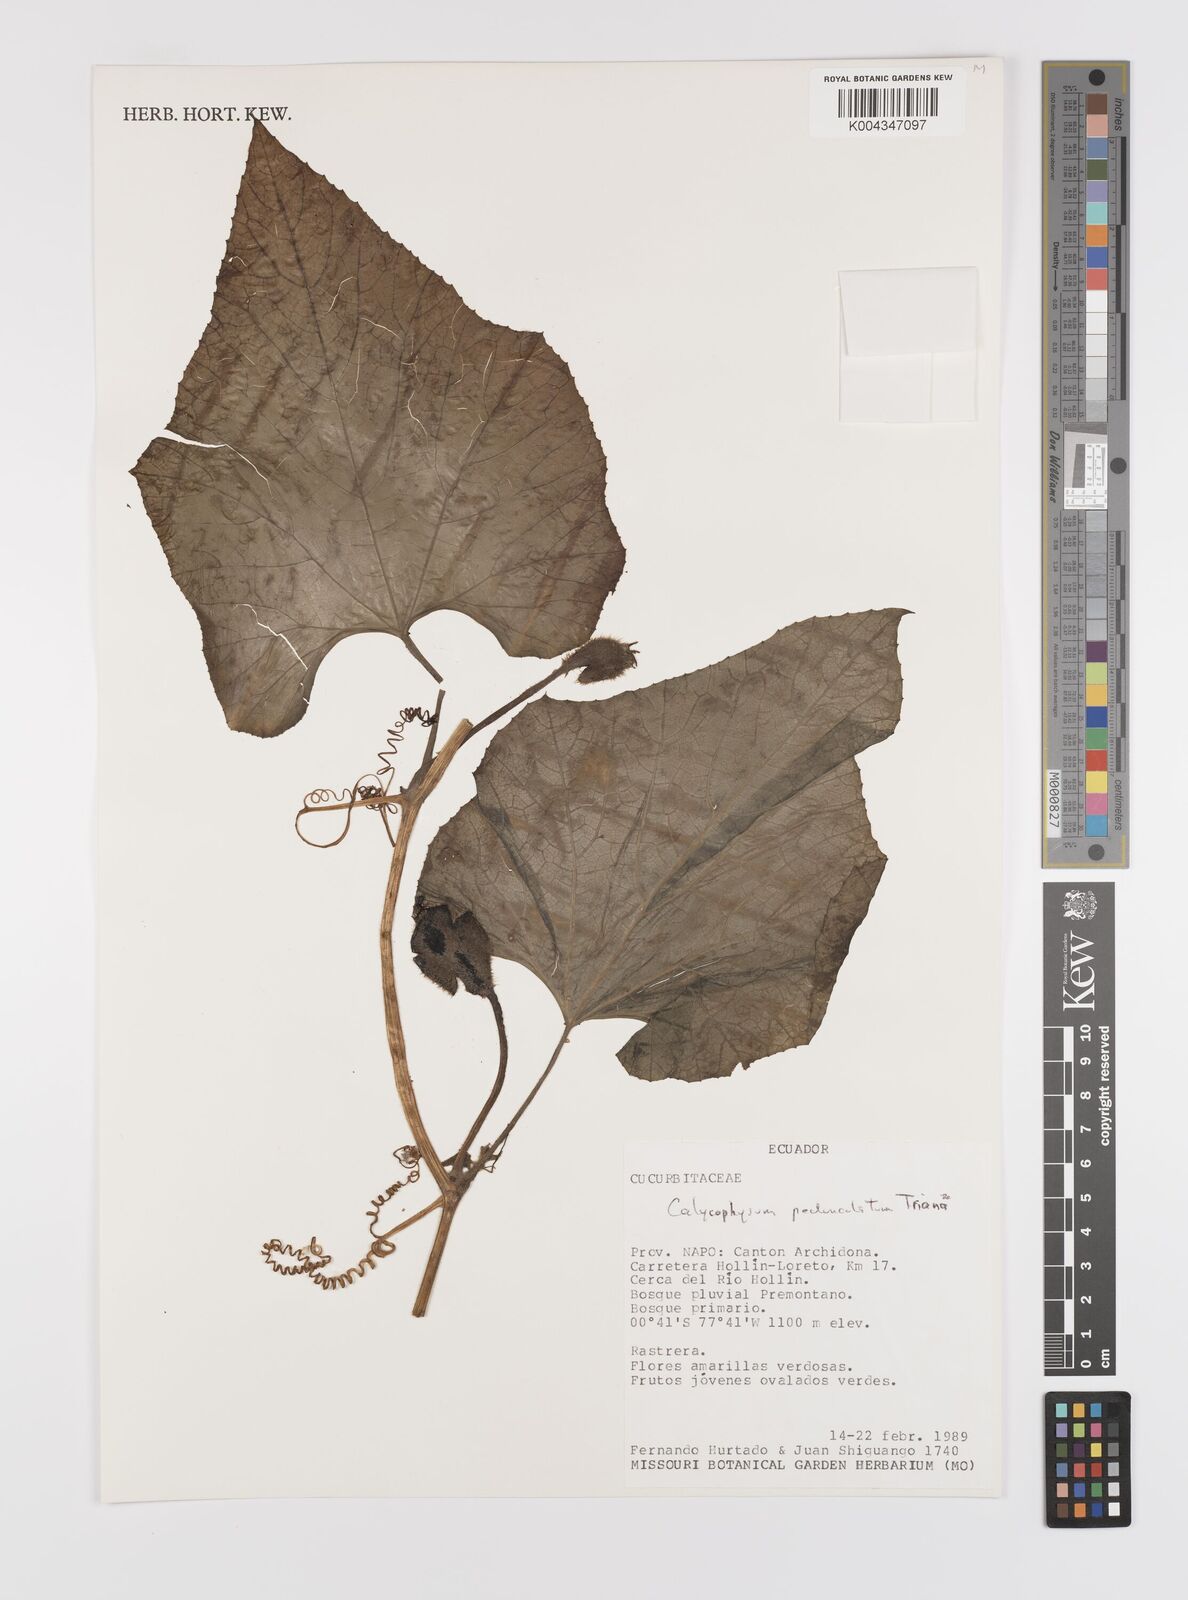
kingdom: Plantae
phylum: Tracheophyta
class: Magnoliopsida
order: Cucurbitales
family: Cucurbitaceae
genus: Calycophysum
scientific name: Calycophysum pedunculatum
